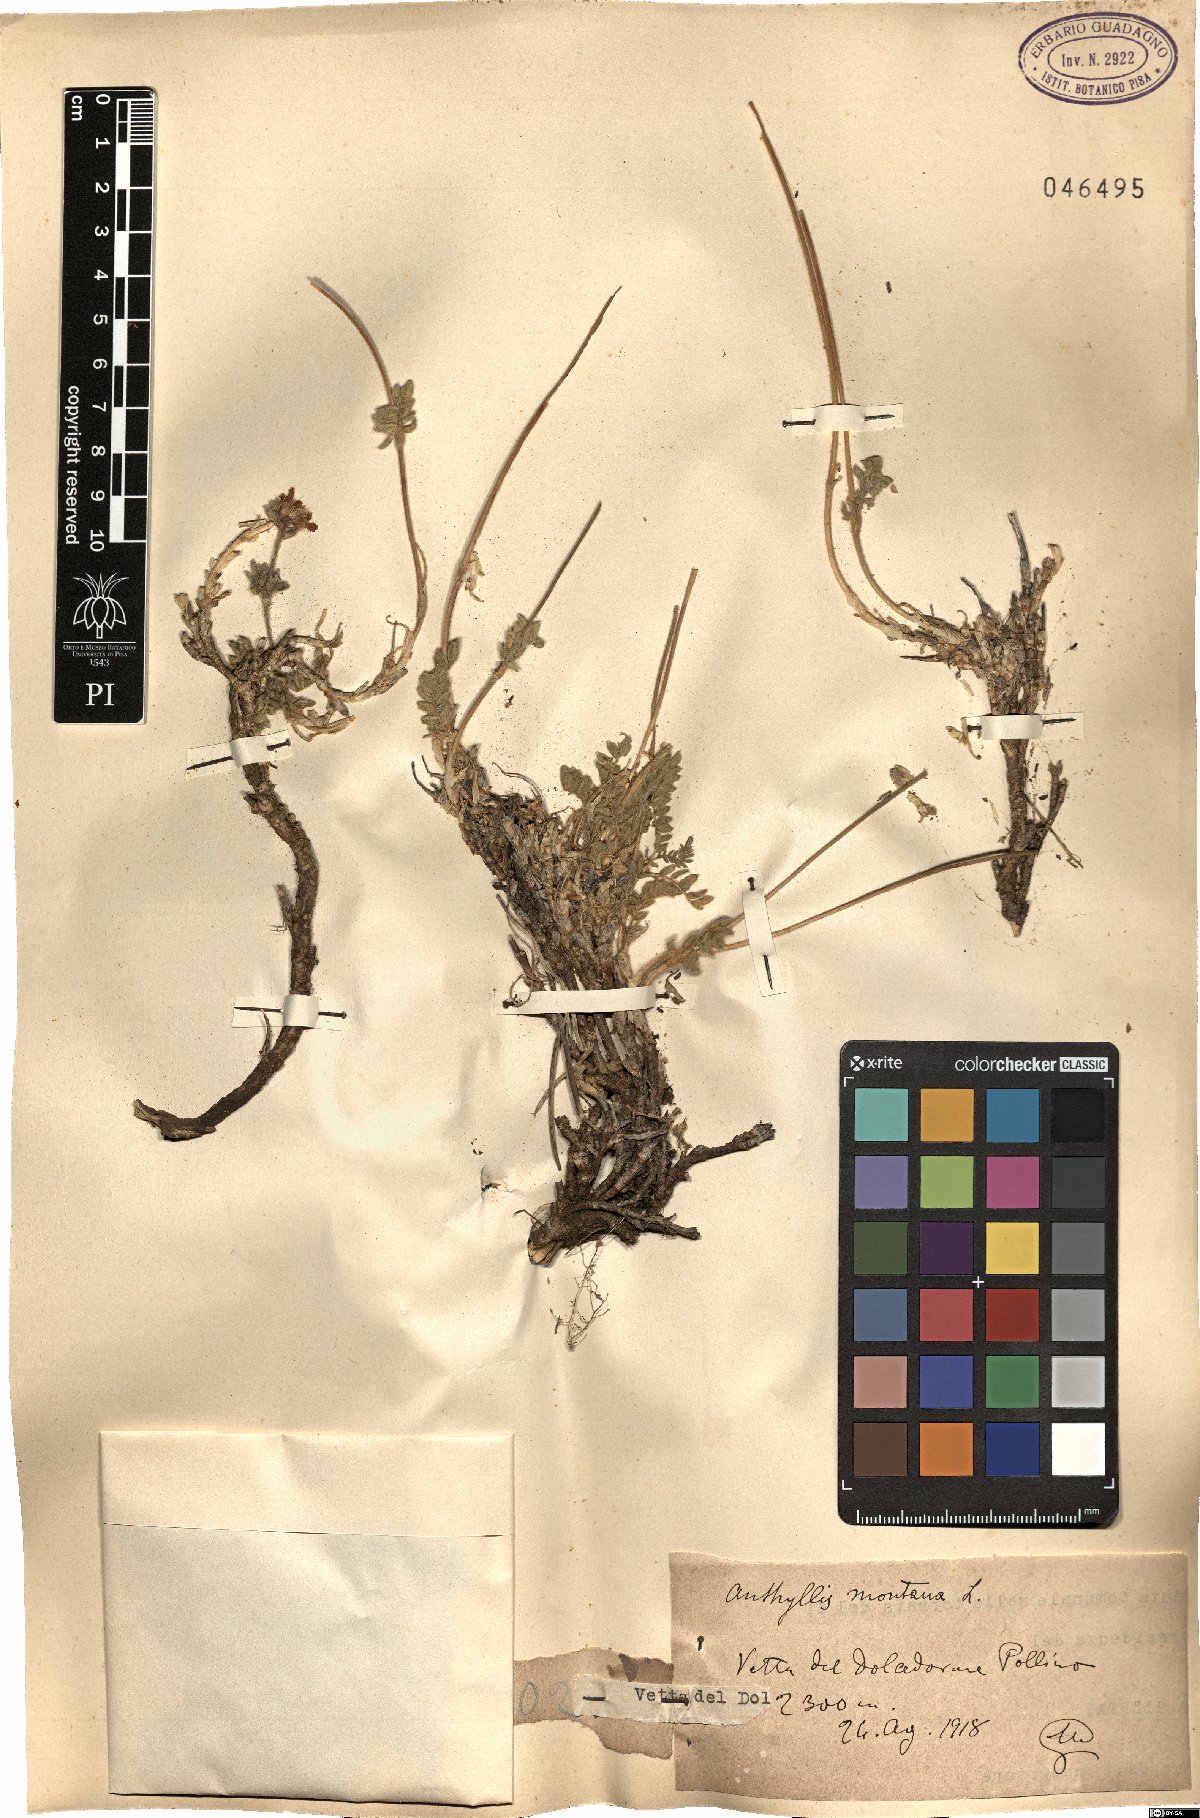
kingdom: Plantae
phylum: Tracheophyta
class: Magnoliopsida
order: Fabales
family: Fabaceae
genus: Anthyllis
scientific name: Anthyllis montana
